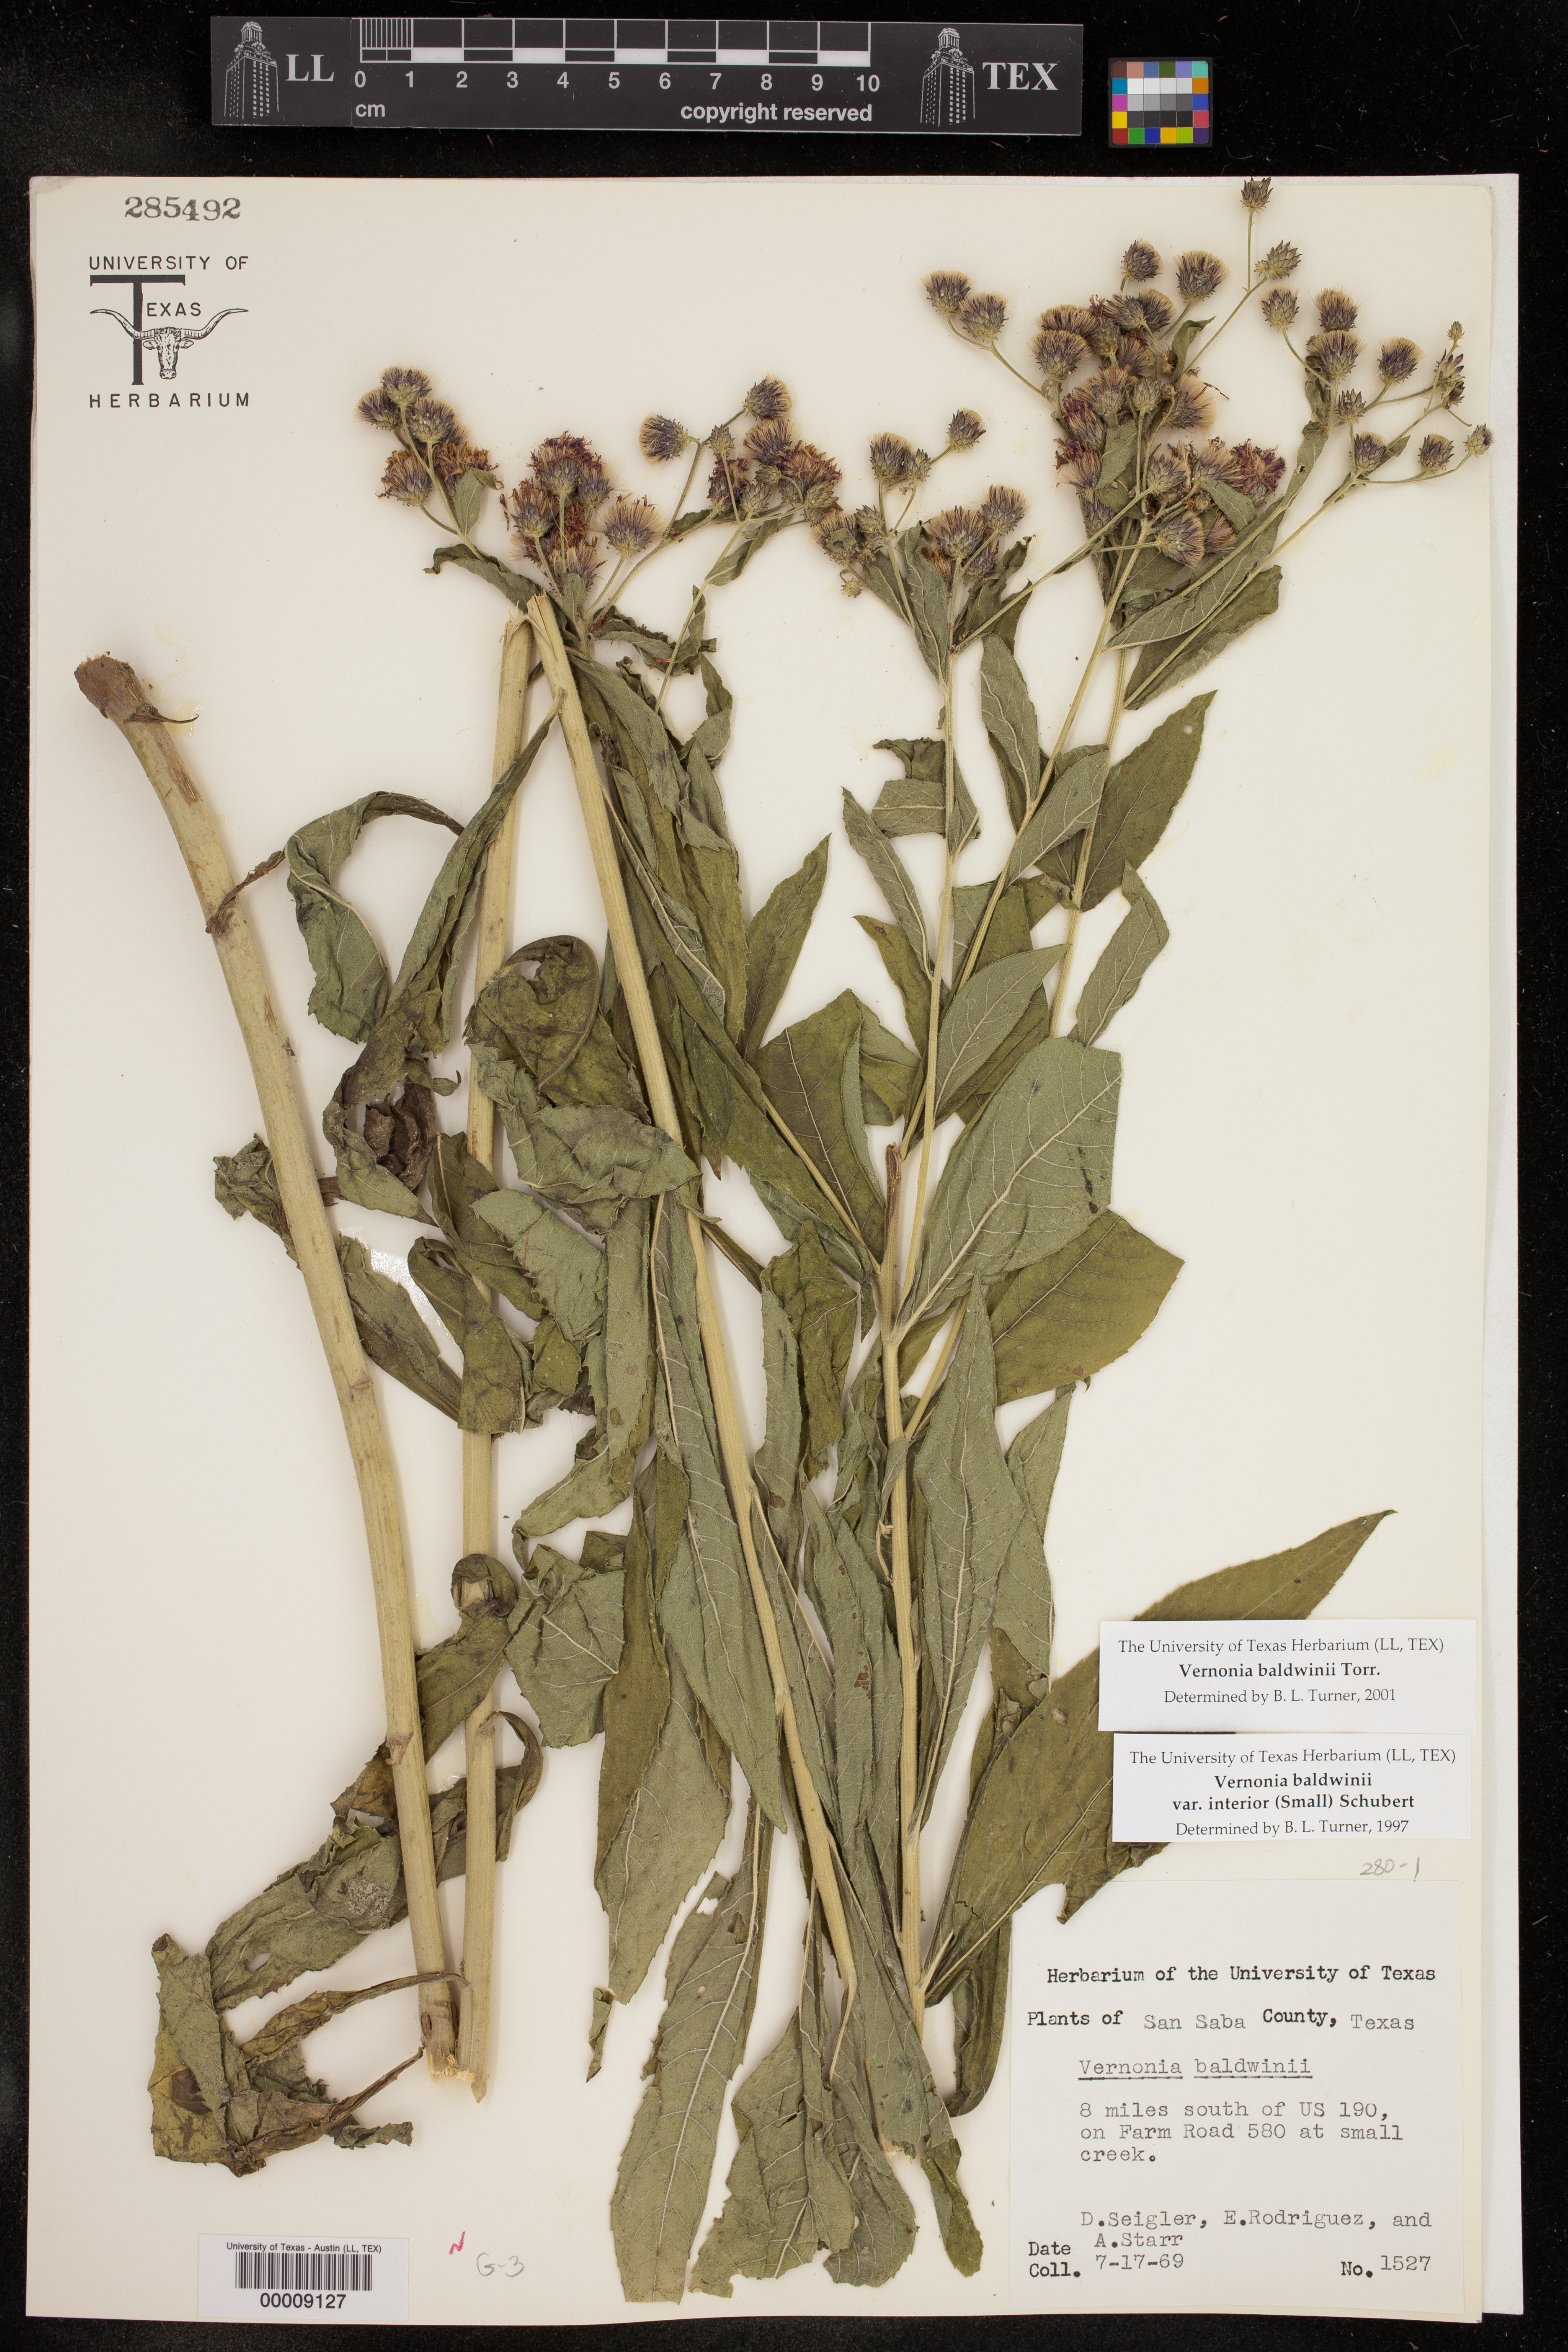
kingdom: Plantae
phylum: Tracheophyta
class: Magnoliopsida
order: Asterales
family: Asteraceae
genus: Vernonia
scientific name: Vernonia baldwinii
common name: Western ironweed
